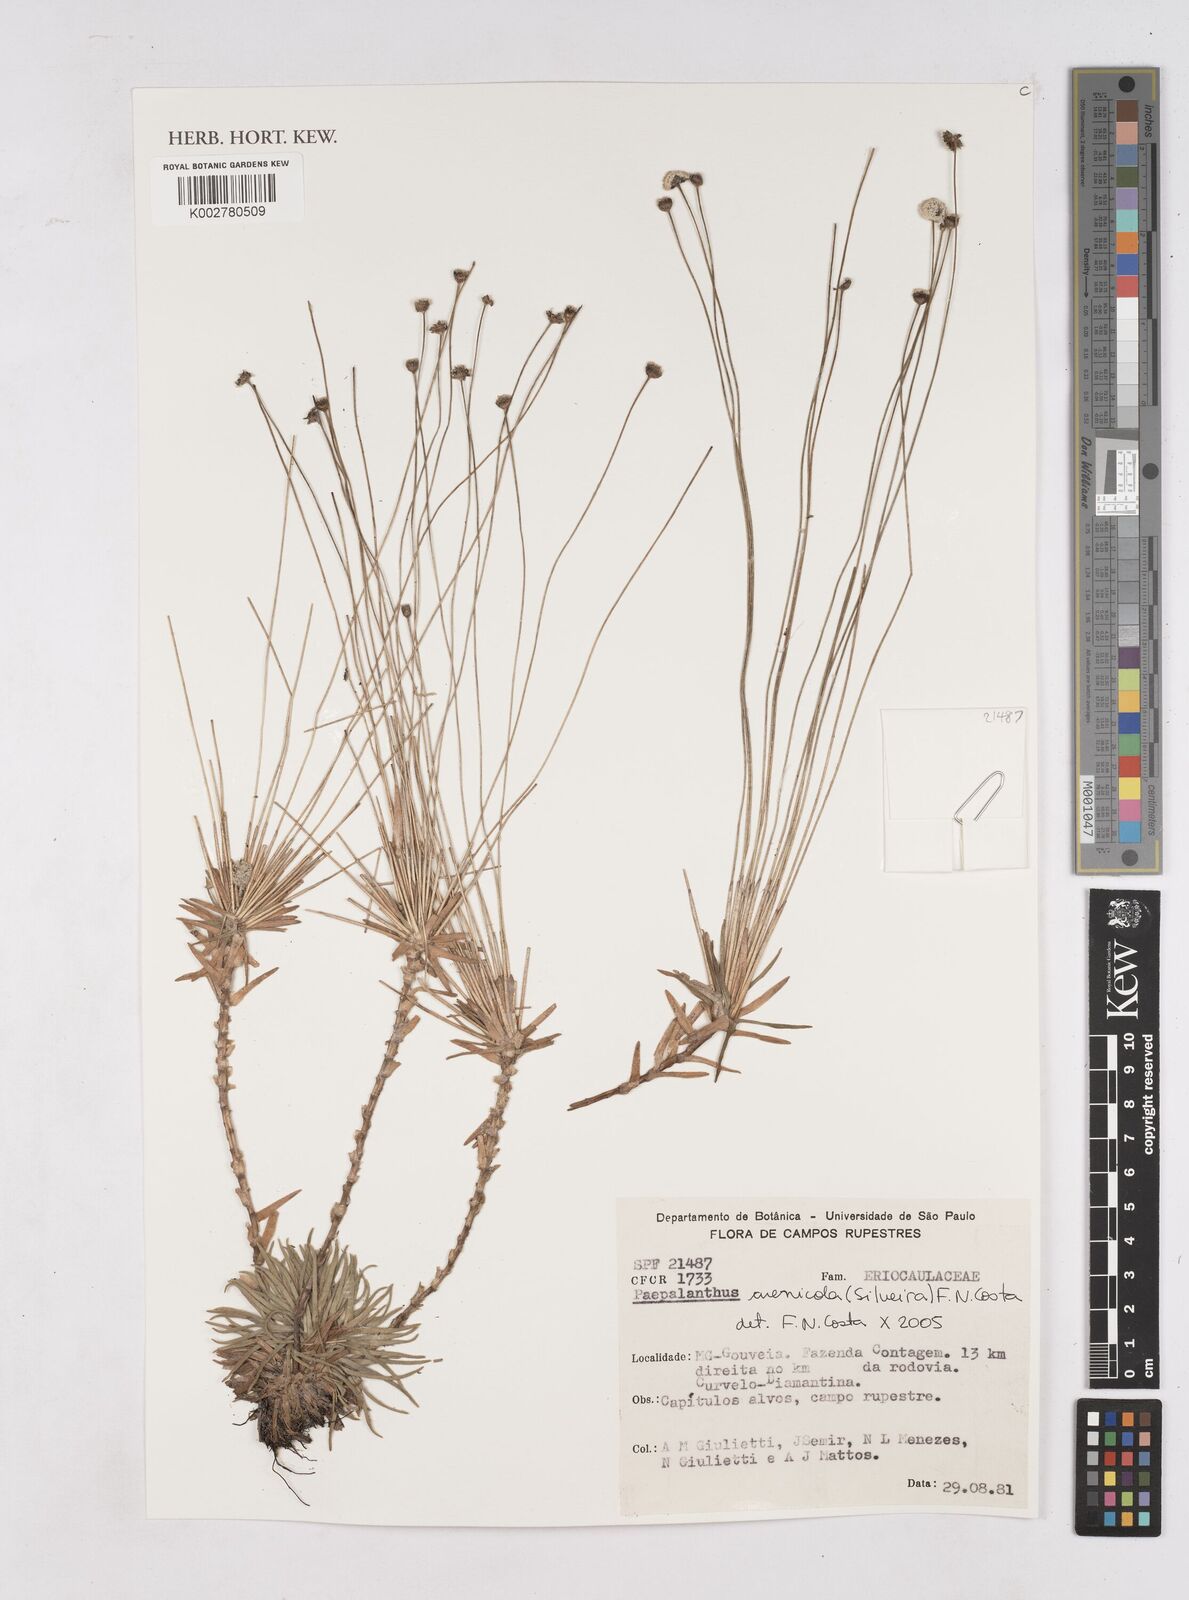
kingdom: Plantae
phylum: Tracheophyta
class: Liliopsida
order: Poales
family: Eriocaulaceae
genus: Paepalanthus
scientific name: Paepalanthus arenicola
